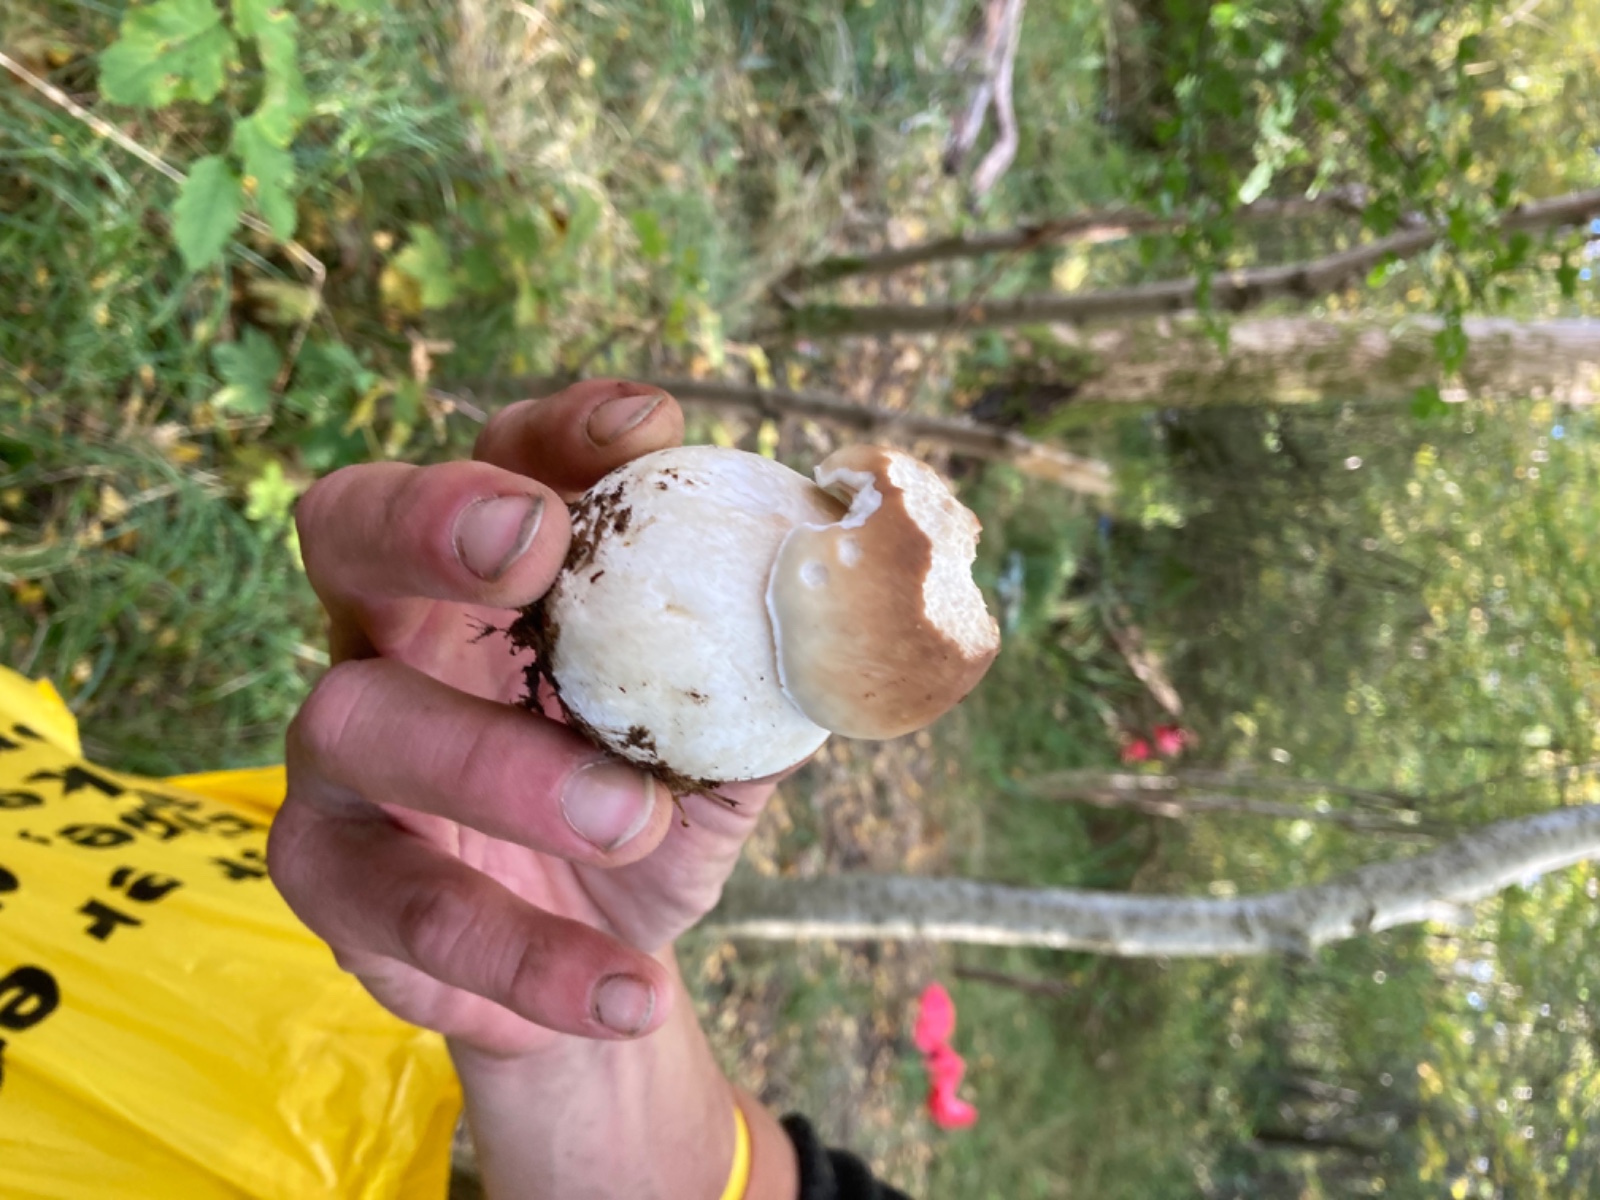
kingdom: Fungi
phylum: Basidiomycota
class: Agaricomycetes
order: Boletales
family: Boletaceae
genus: Boletus
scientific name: Boletus edulis
